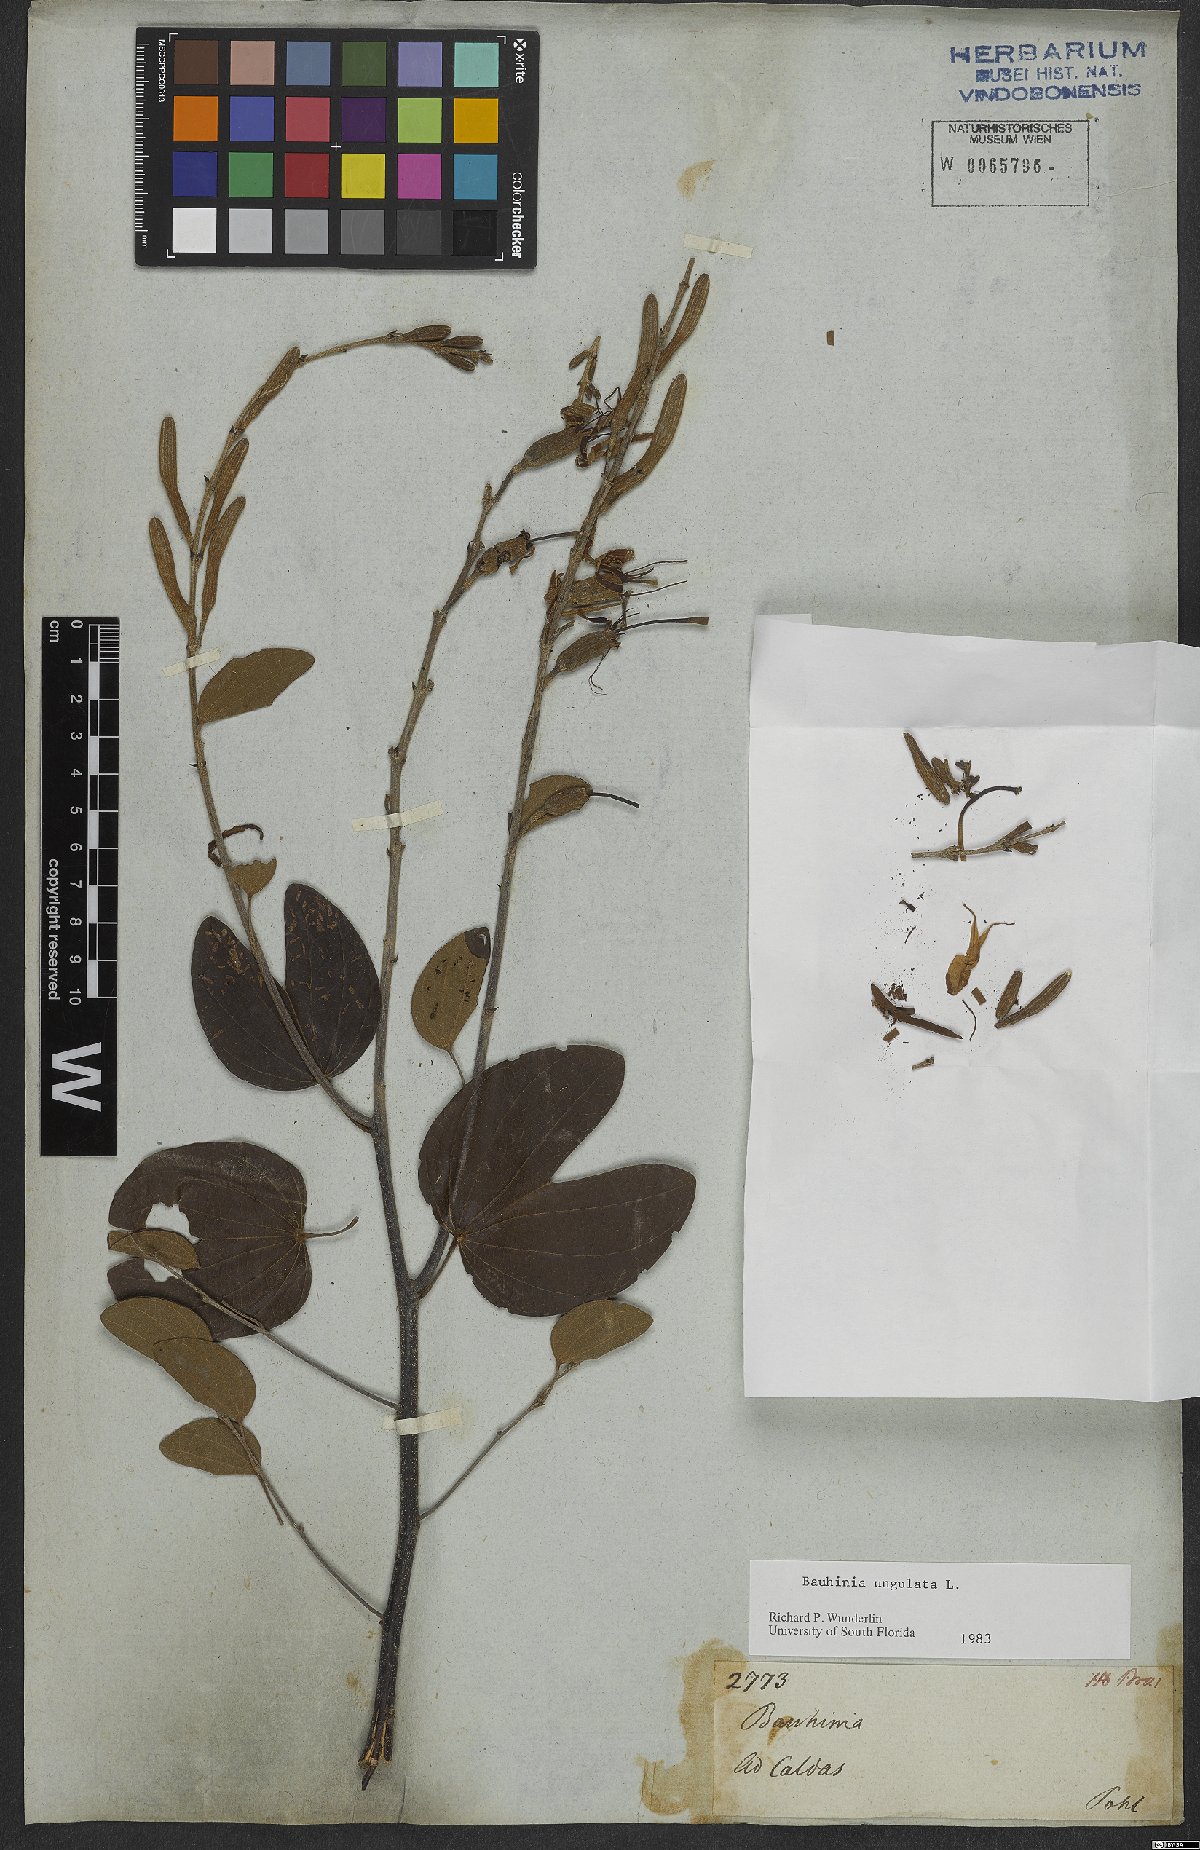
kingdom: Plantae
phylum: Tracheophyta
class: Magnoliopsida
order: Fabales
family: Fabaceae
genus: Bauhinia
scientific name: Bauhinia ungulata
